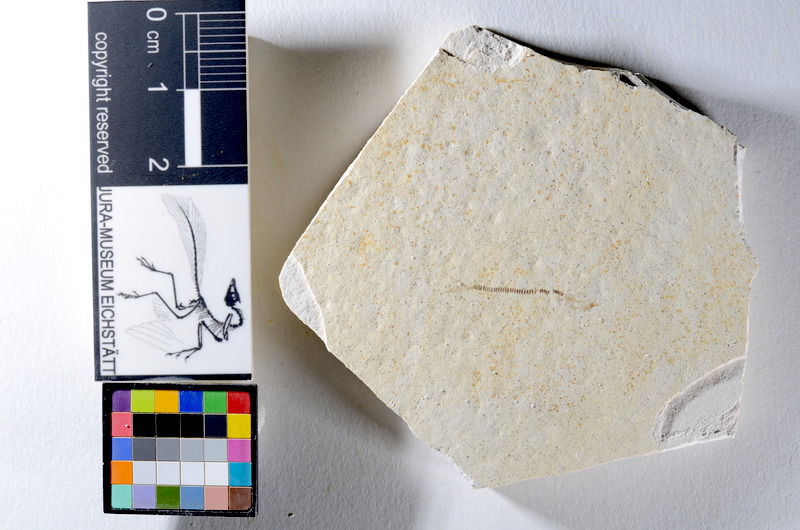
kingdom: Animalia
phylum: Chordata
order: Salmoniformes
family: Orthogonikleithridae
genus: Orthogonikleithrus
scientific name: Orthogonikleithrus hoelli
